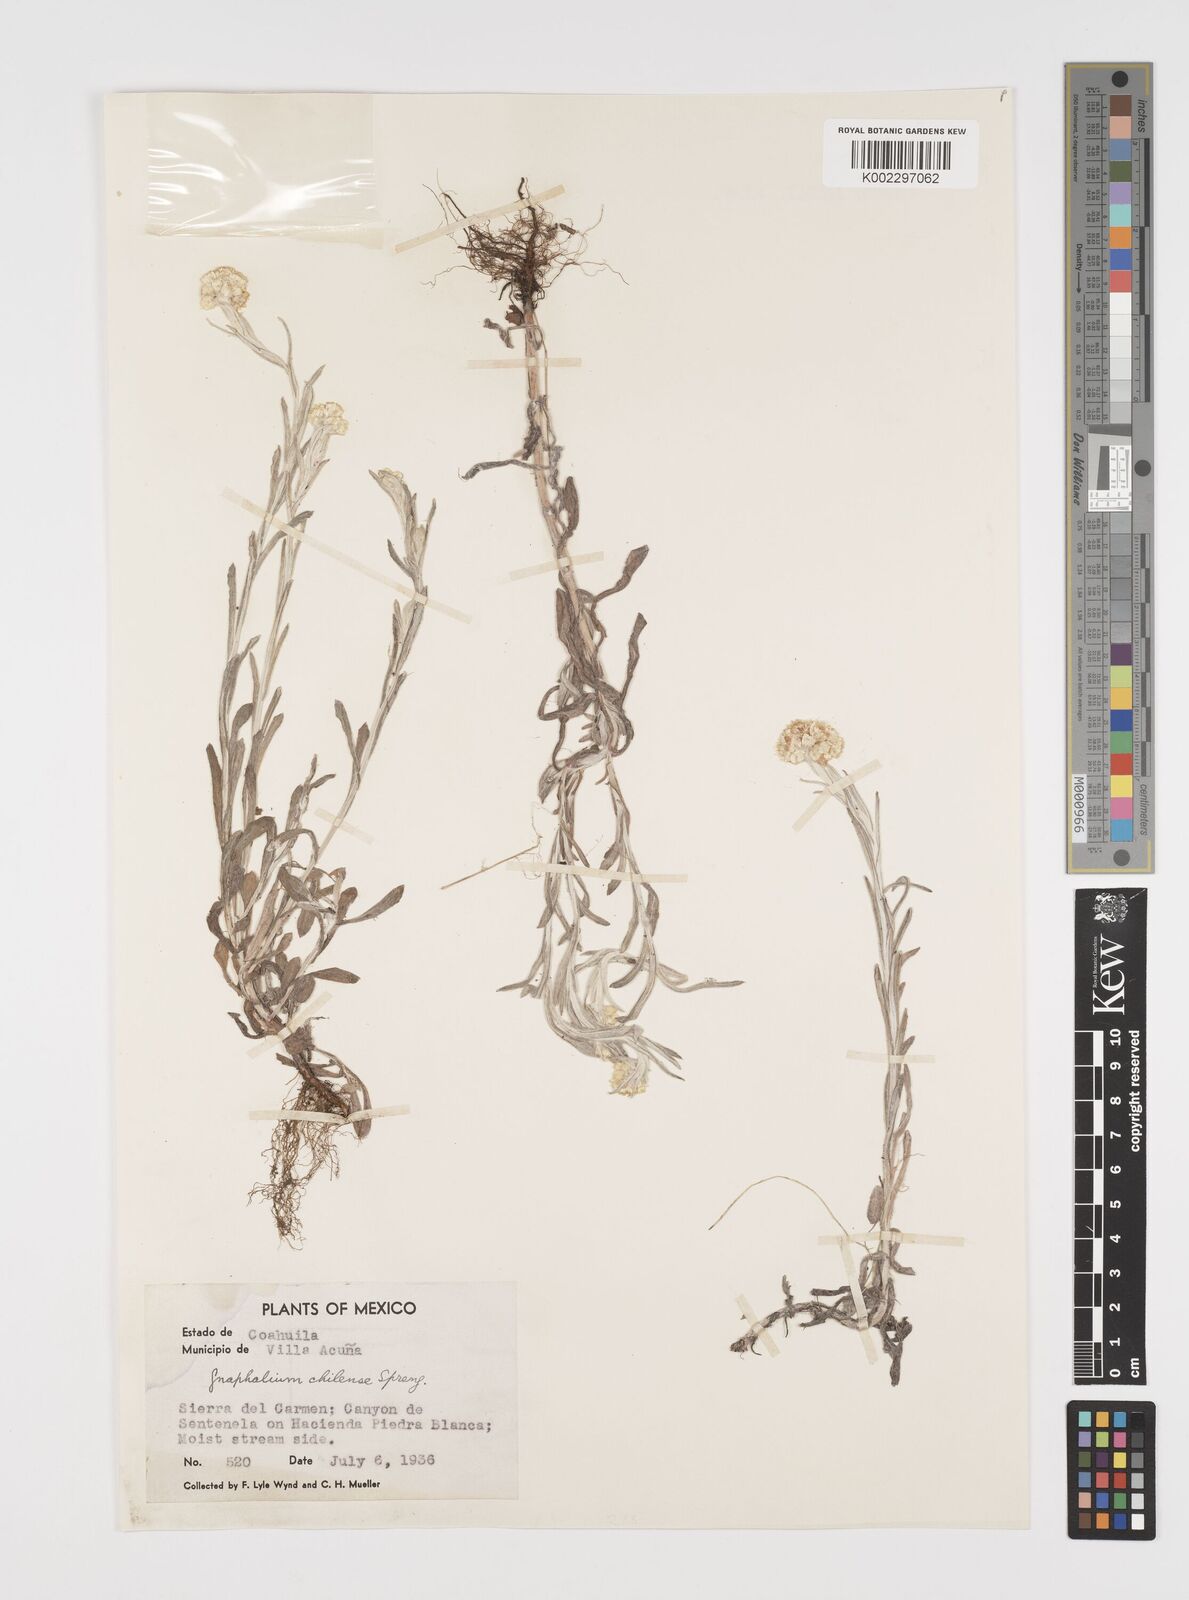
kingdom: Plantae
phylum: Tracheophyta
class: Magnoliopsida
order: Asterales
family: Asteraceae
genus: Pseudognaphalium
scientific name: Pseudognaphalium
